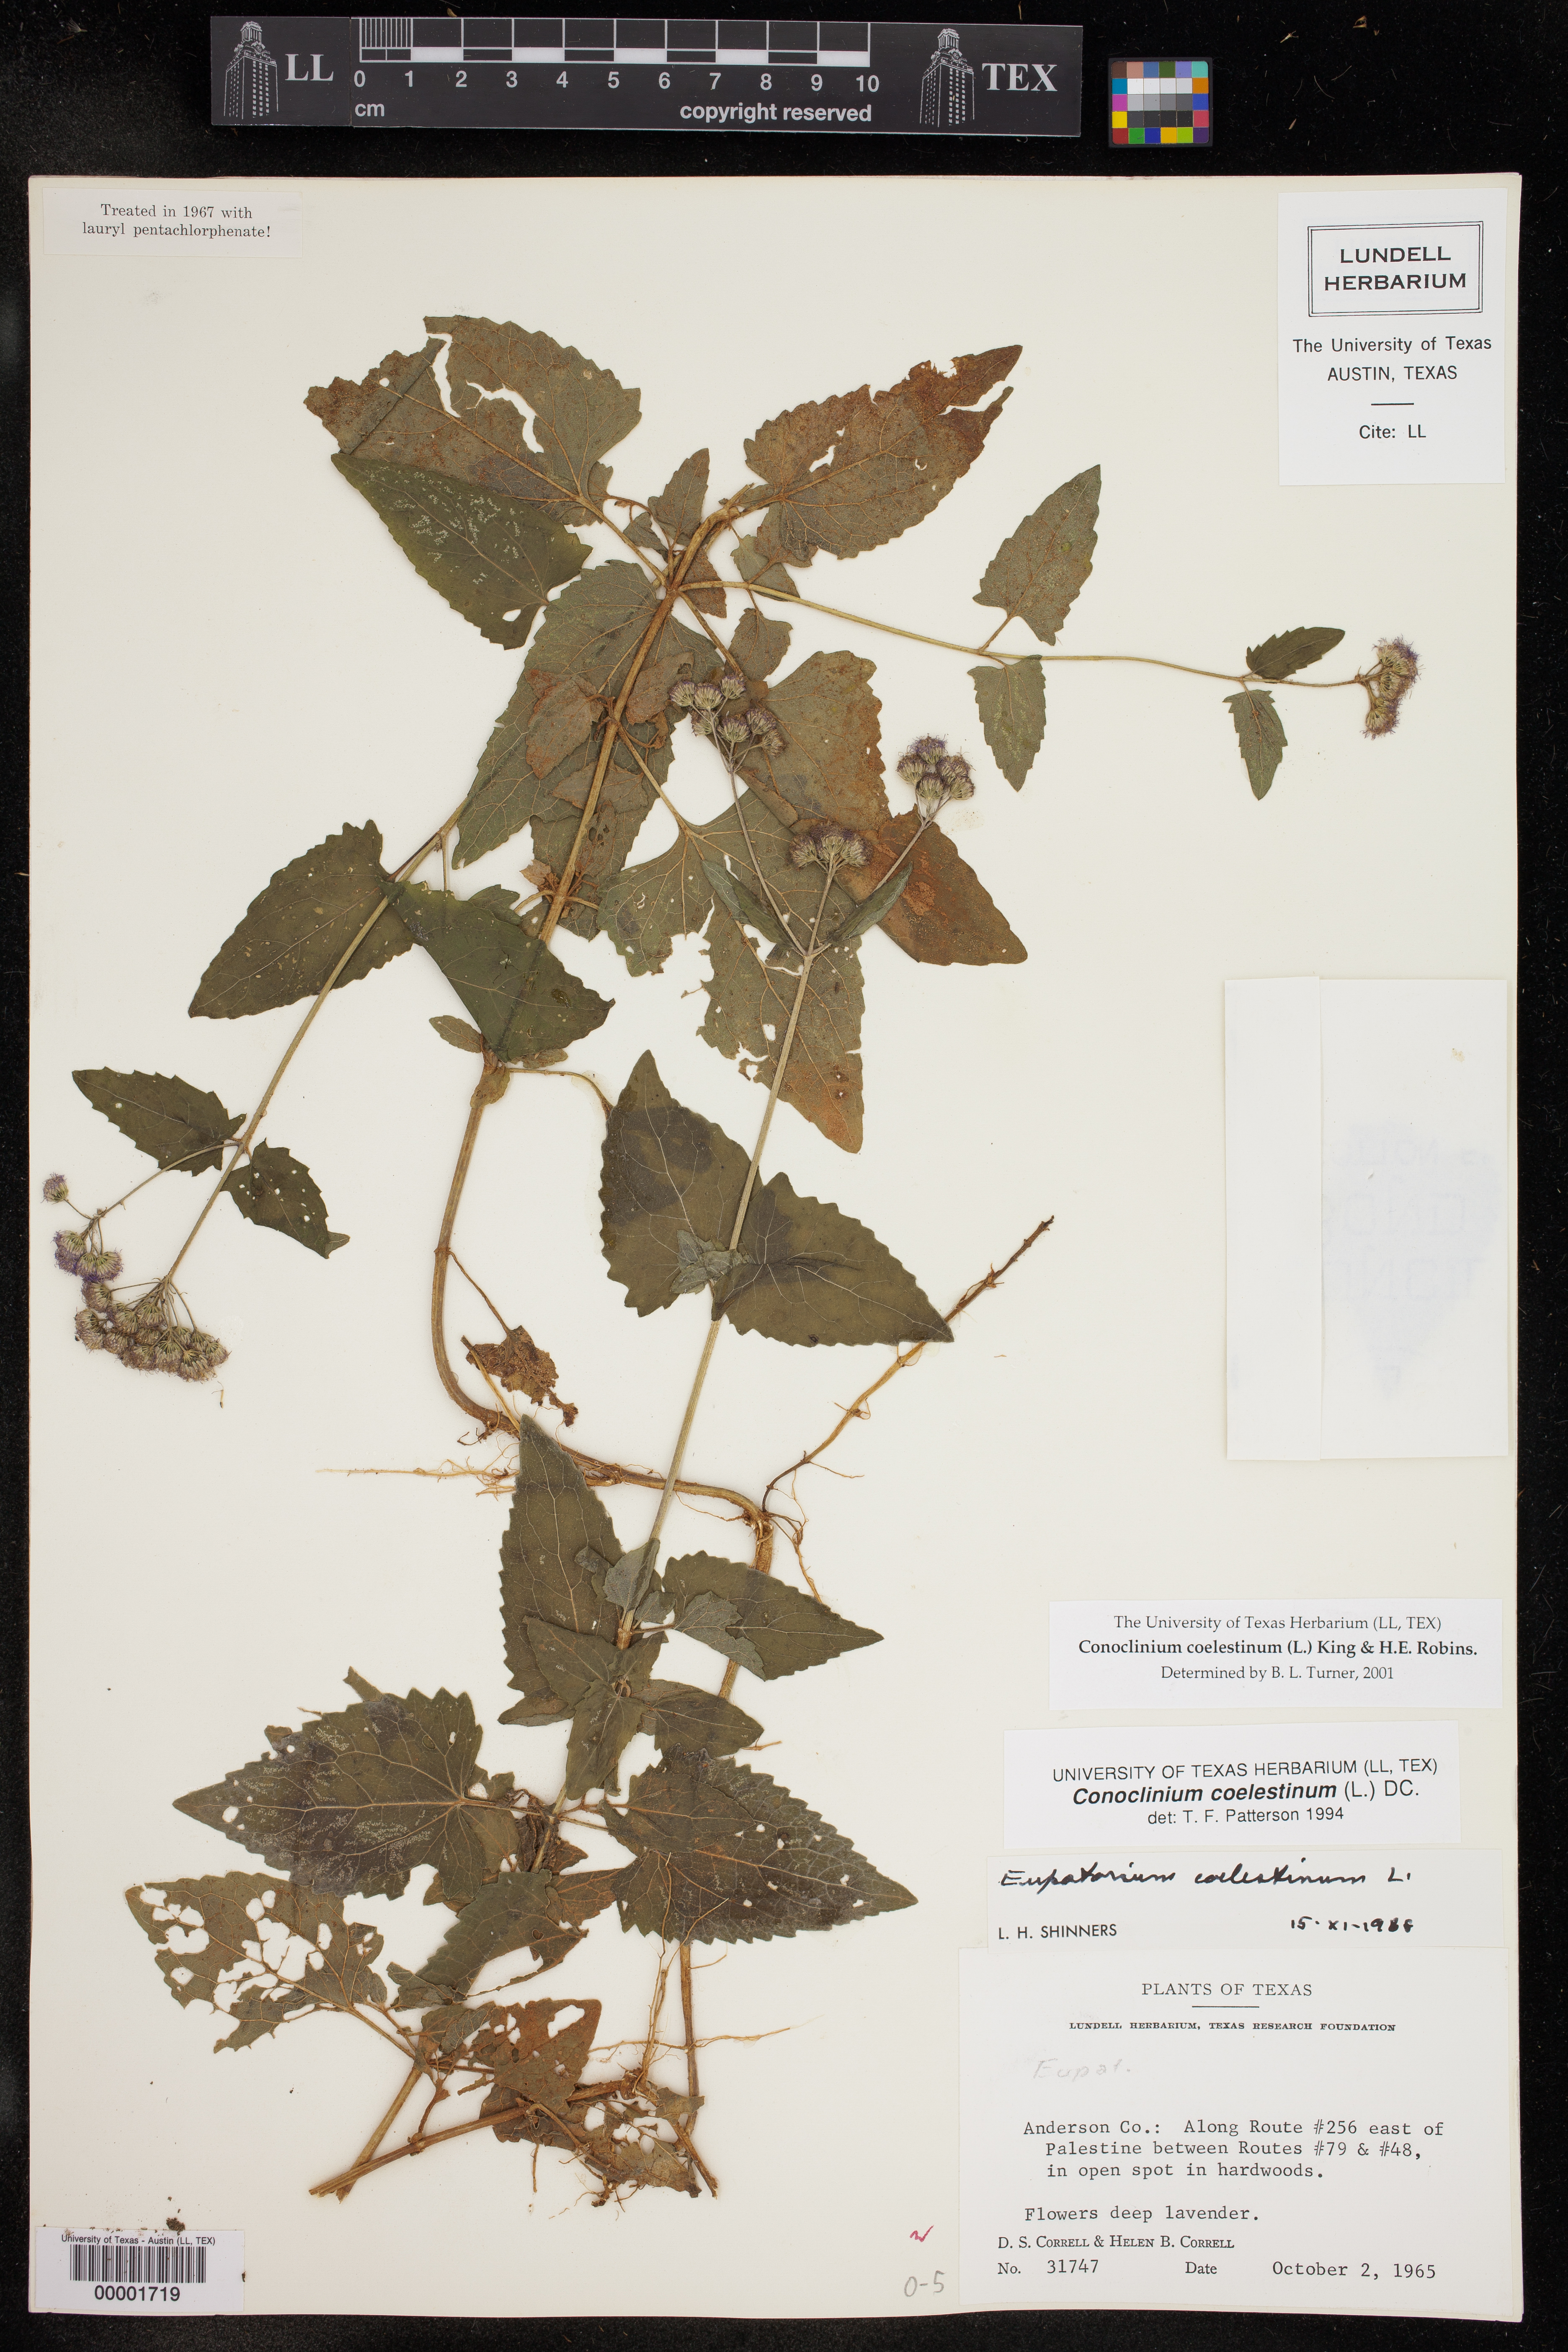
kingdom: Plantae
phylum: Tracheophyta
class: Magnoliopsida
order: Asterales
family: Asteraceae
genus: Conoclinium
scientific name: Conoclinium coelestinum
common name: Blue mistflower
